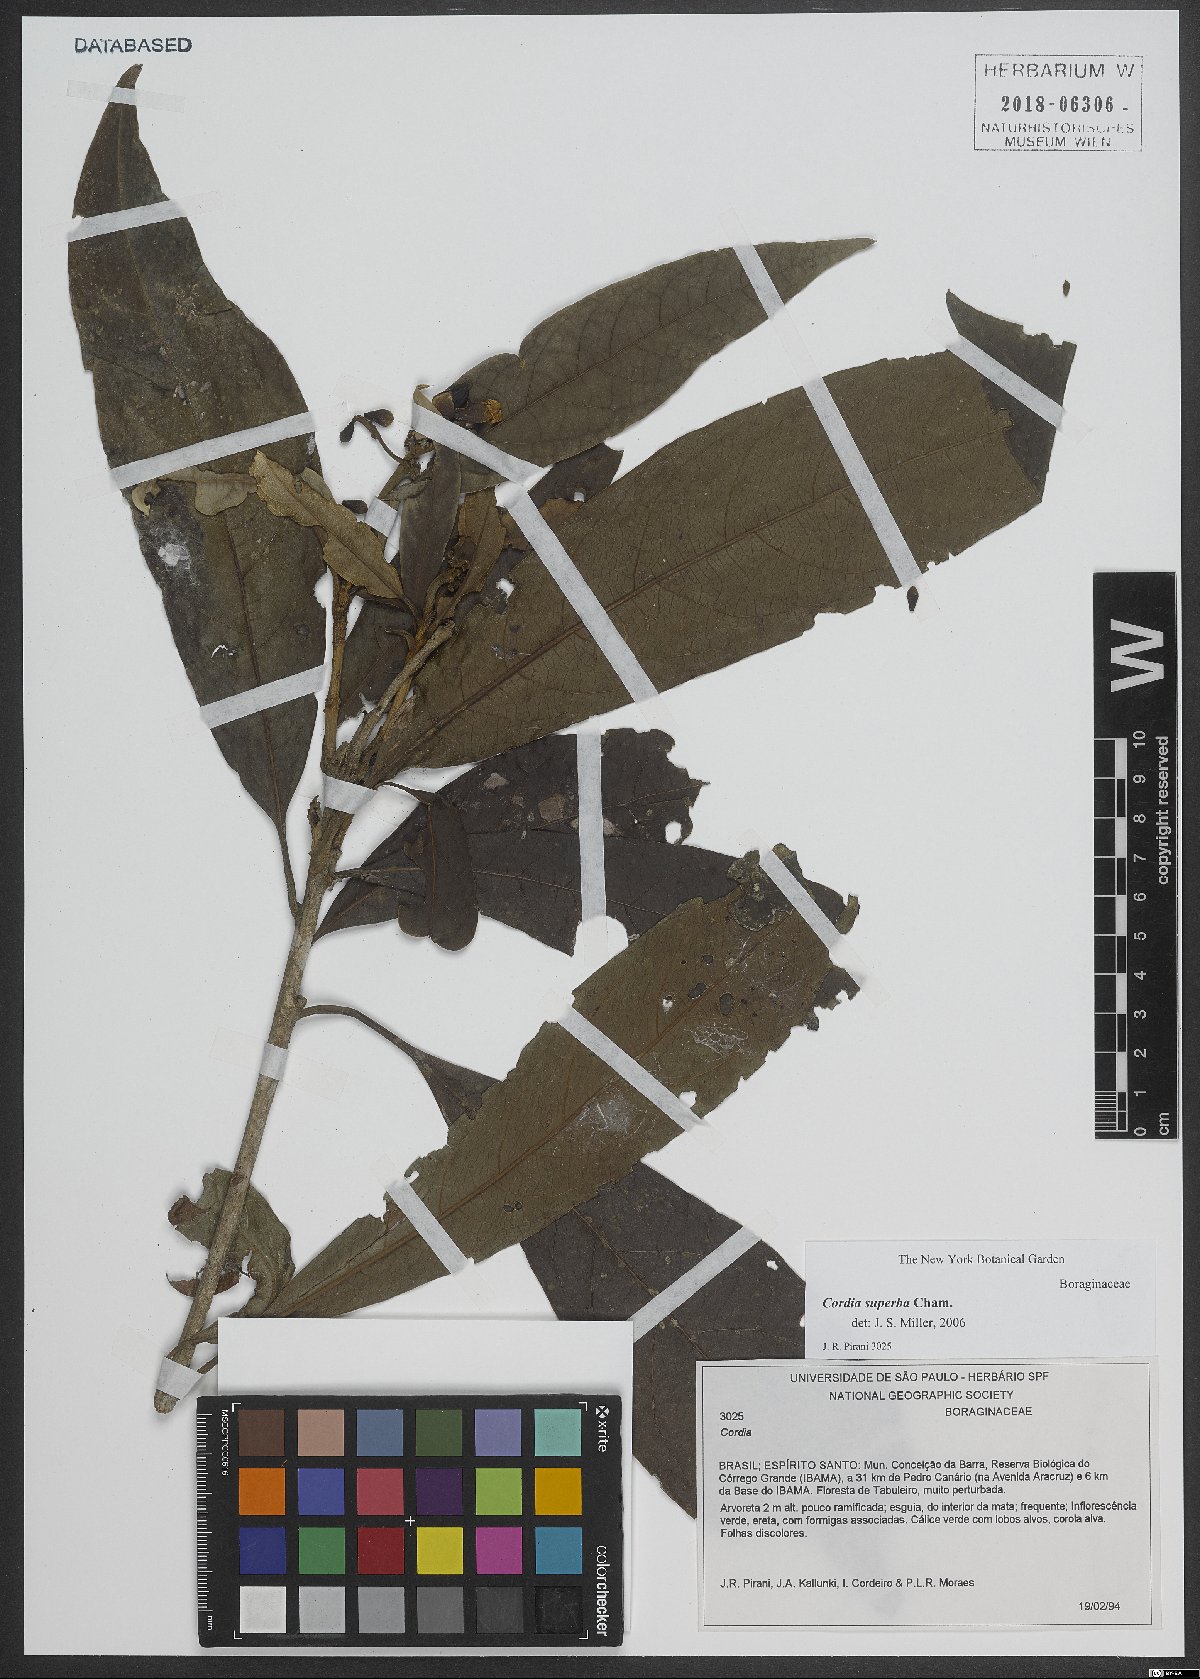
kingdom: Plantae
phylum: Tracheophyta
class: Magnoliopsida
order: Boraginales
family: Cordiaceae
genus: Cordia
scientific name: Cordia superba
